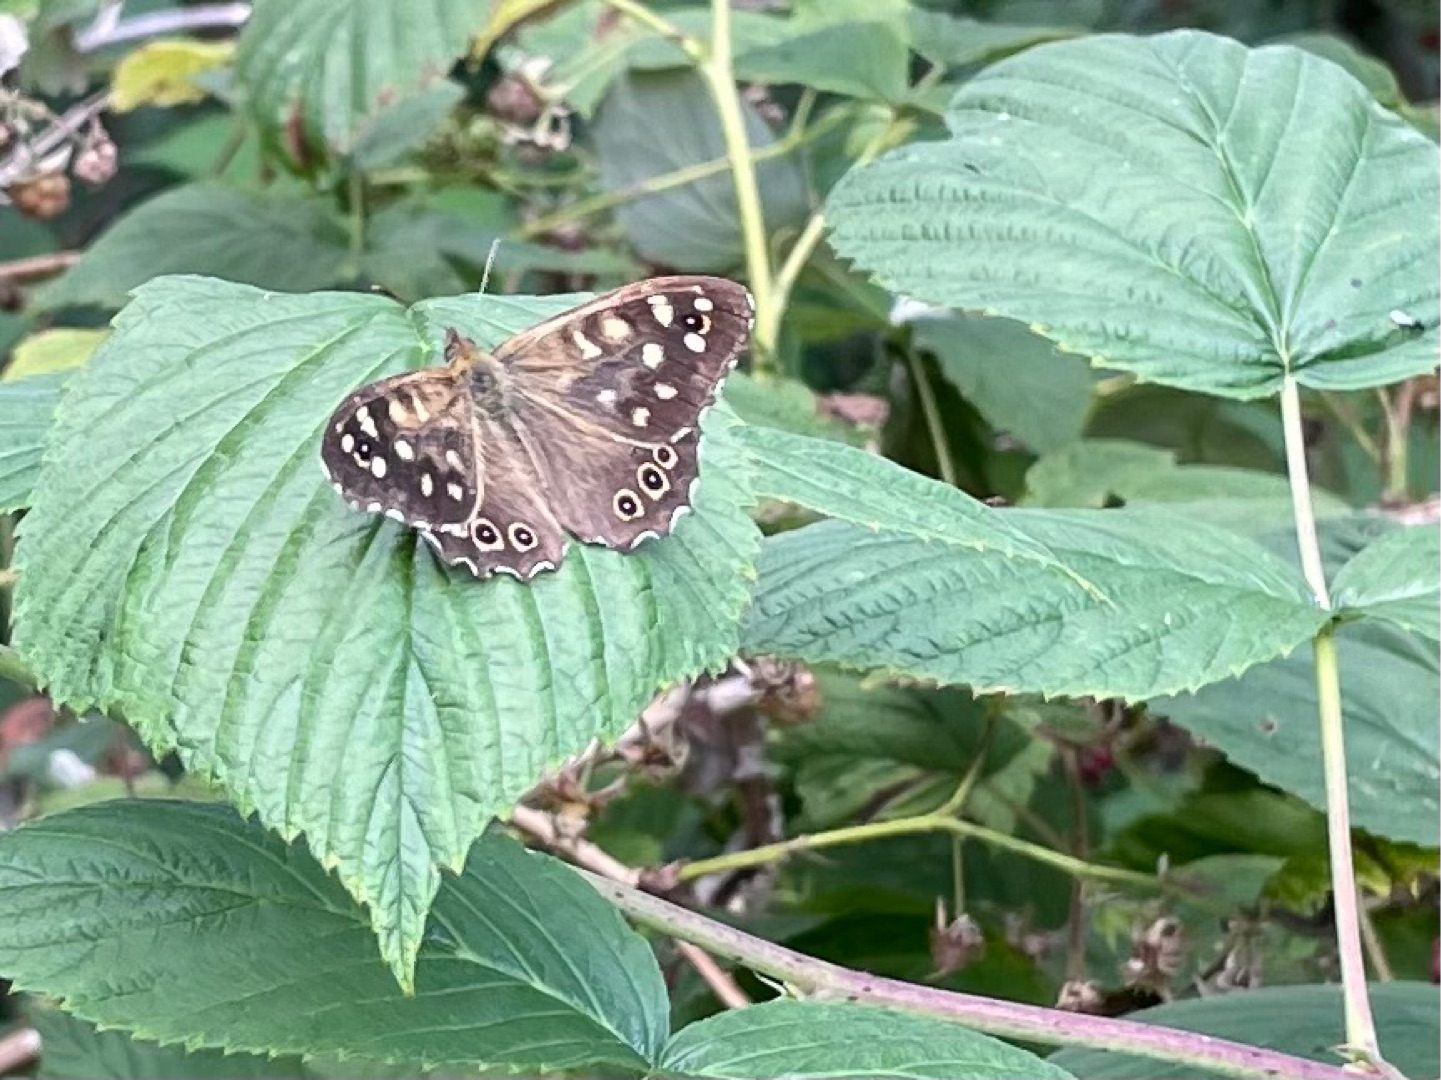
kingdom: Animalia
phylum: Arthropoda
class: Insecta
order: Lepidoptera
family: Nymphalidae
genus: Pararge
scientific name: Pararge aegeria
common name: Skovrandøje
